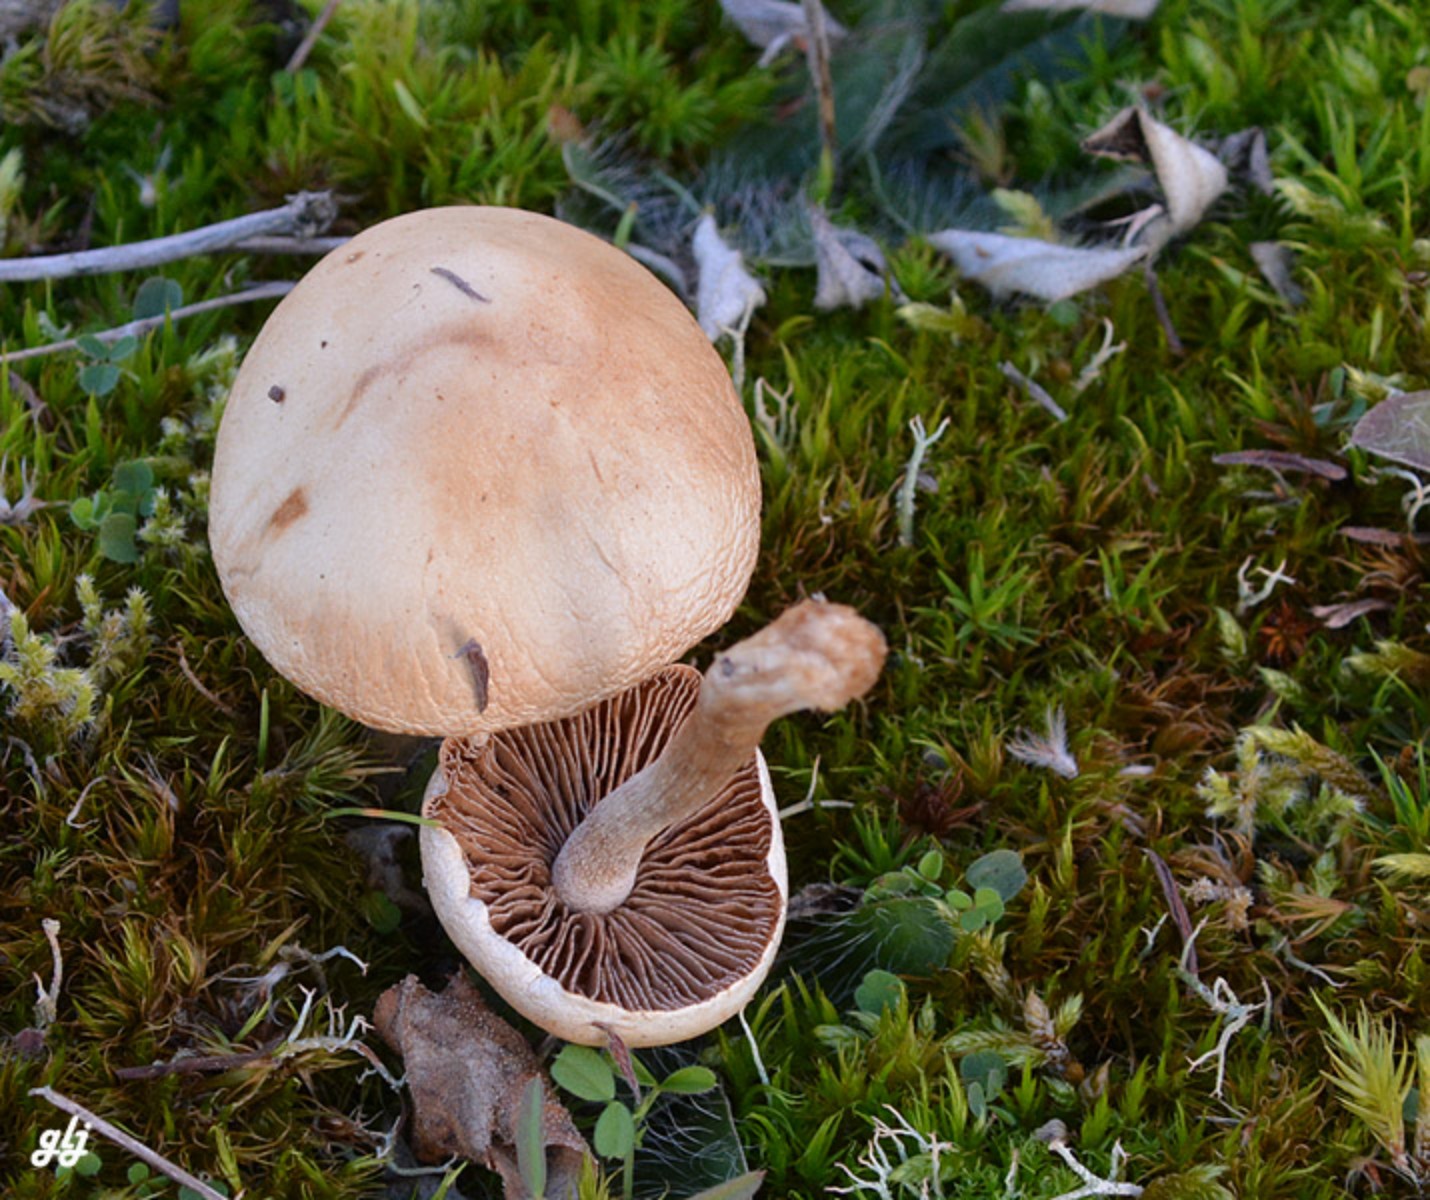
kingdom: Fungi
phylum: Basidiomycota
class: Agaricomycetes
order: Agaricales
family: Hymenogastraceae
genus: Hebeloma
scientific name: Hebeloma
